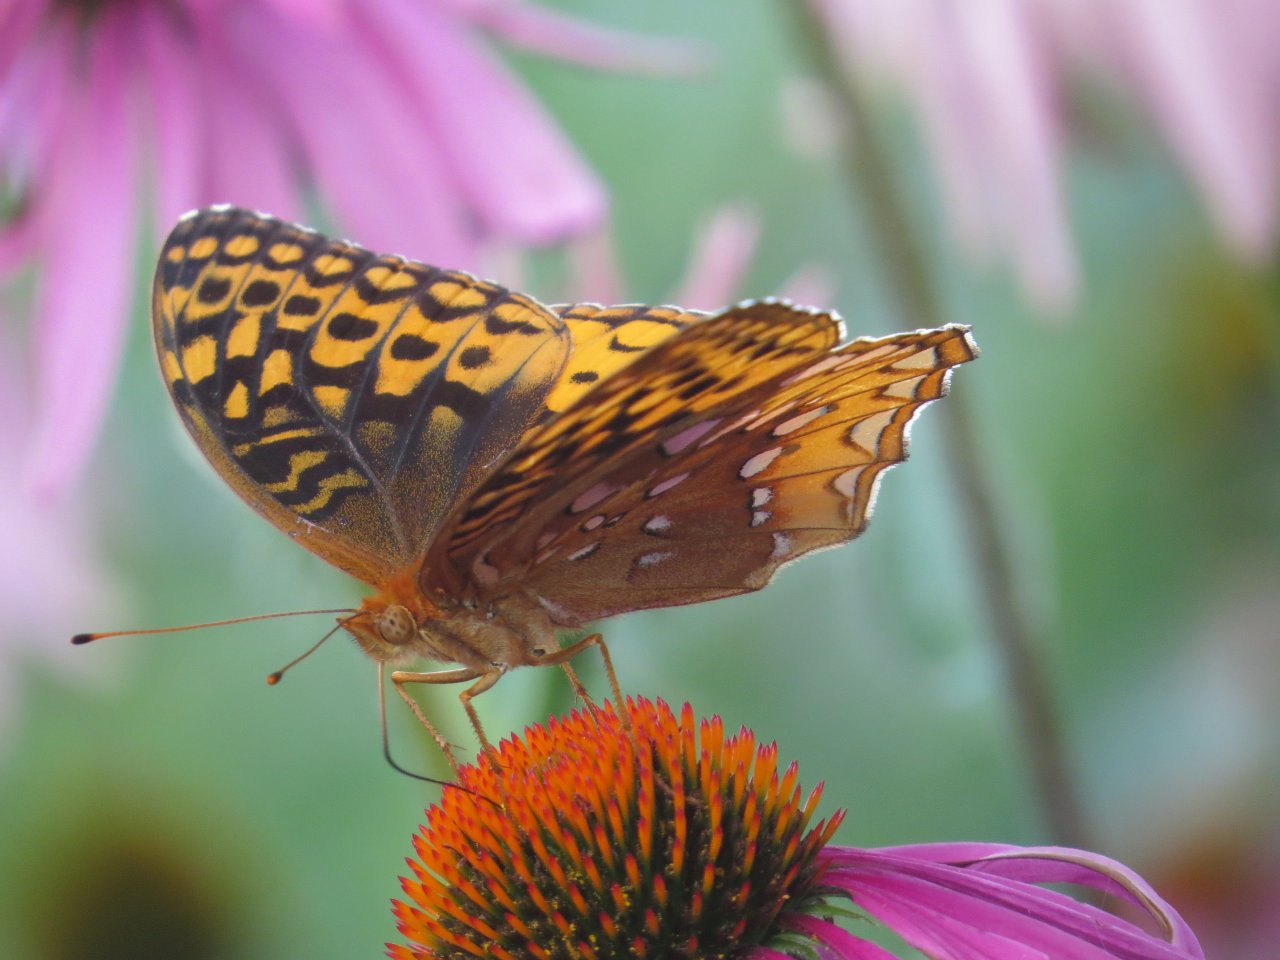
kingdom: Animalia
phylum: Arthropoda
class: Insecta
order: Lepidoptera
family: Nymphalidae
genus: Speyeria
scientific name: Speyeria cybele
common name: Great Spangled Fritillary
